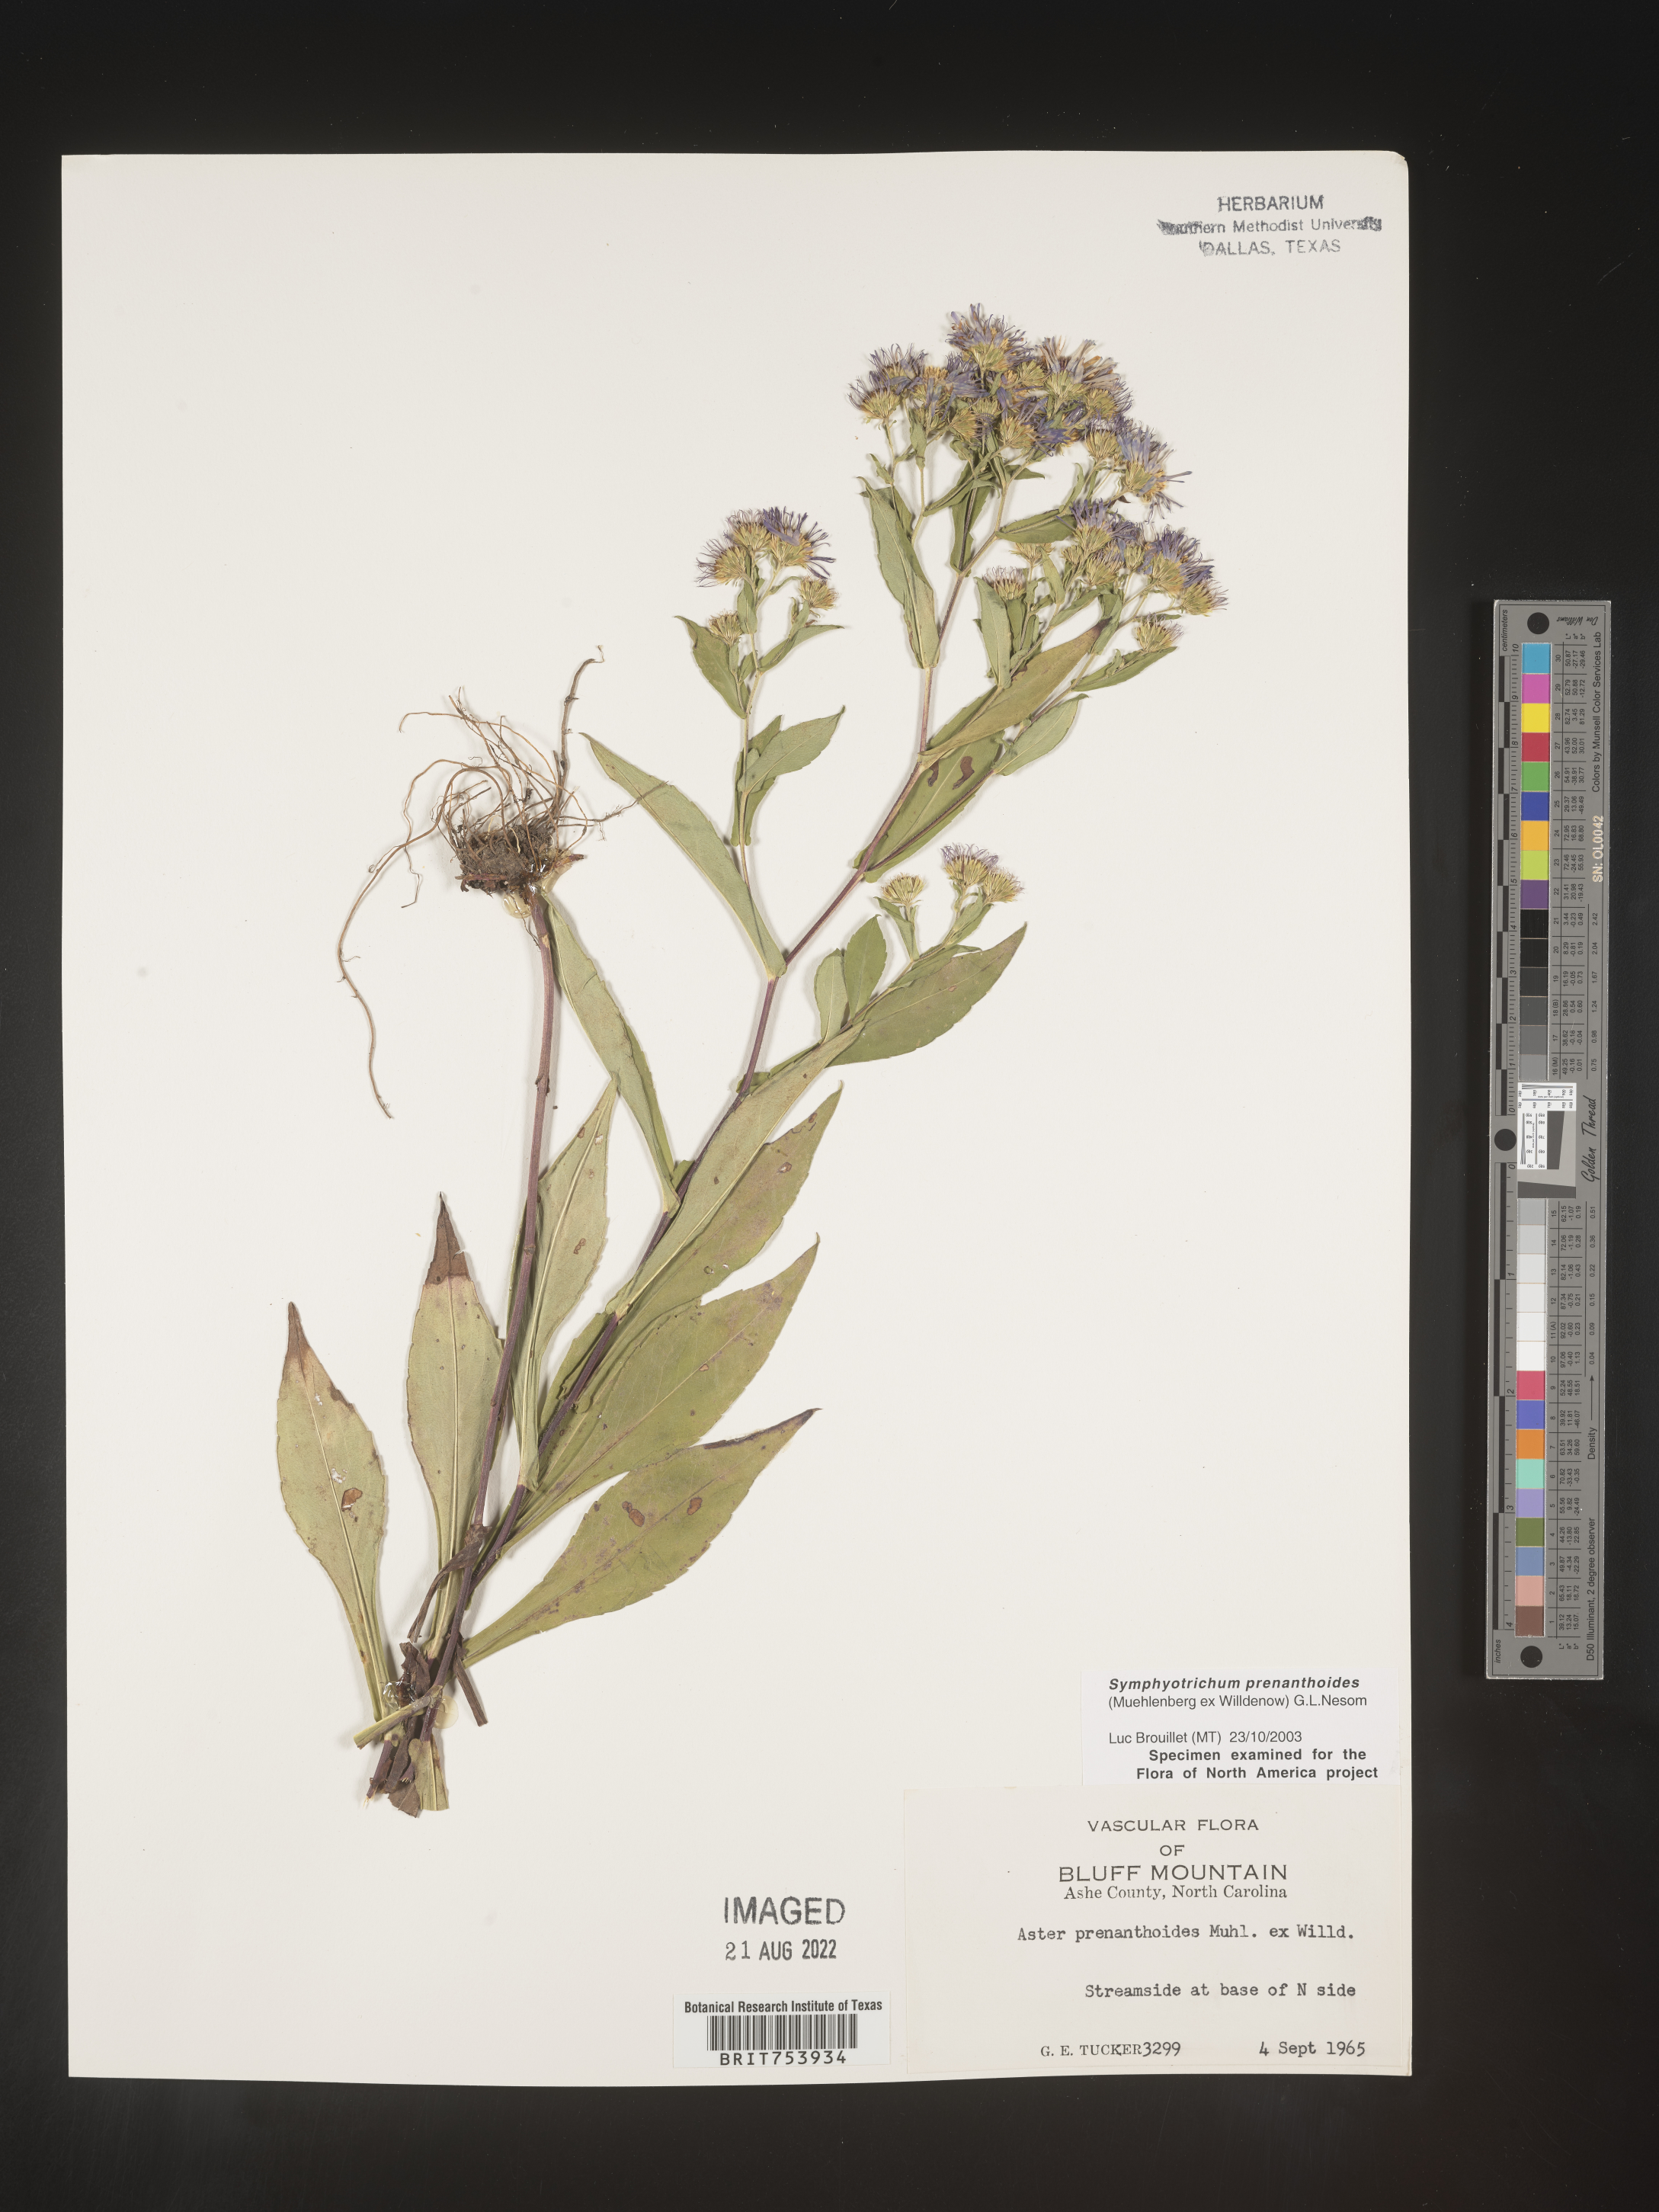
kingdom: Plantae
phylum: Tracheophyta
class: Magnoliopsida
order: Asterales
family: Asteraceae
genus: Symphyotrichum
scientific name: Symphyotrichum prenanthoides
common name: Crooked-stem aster
